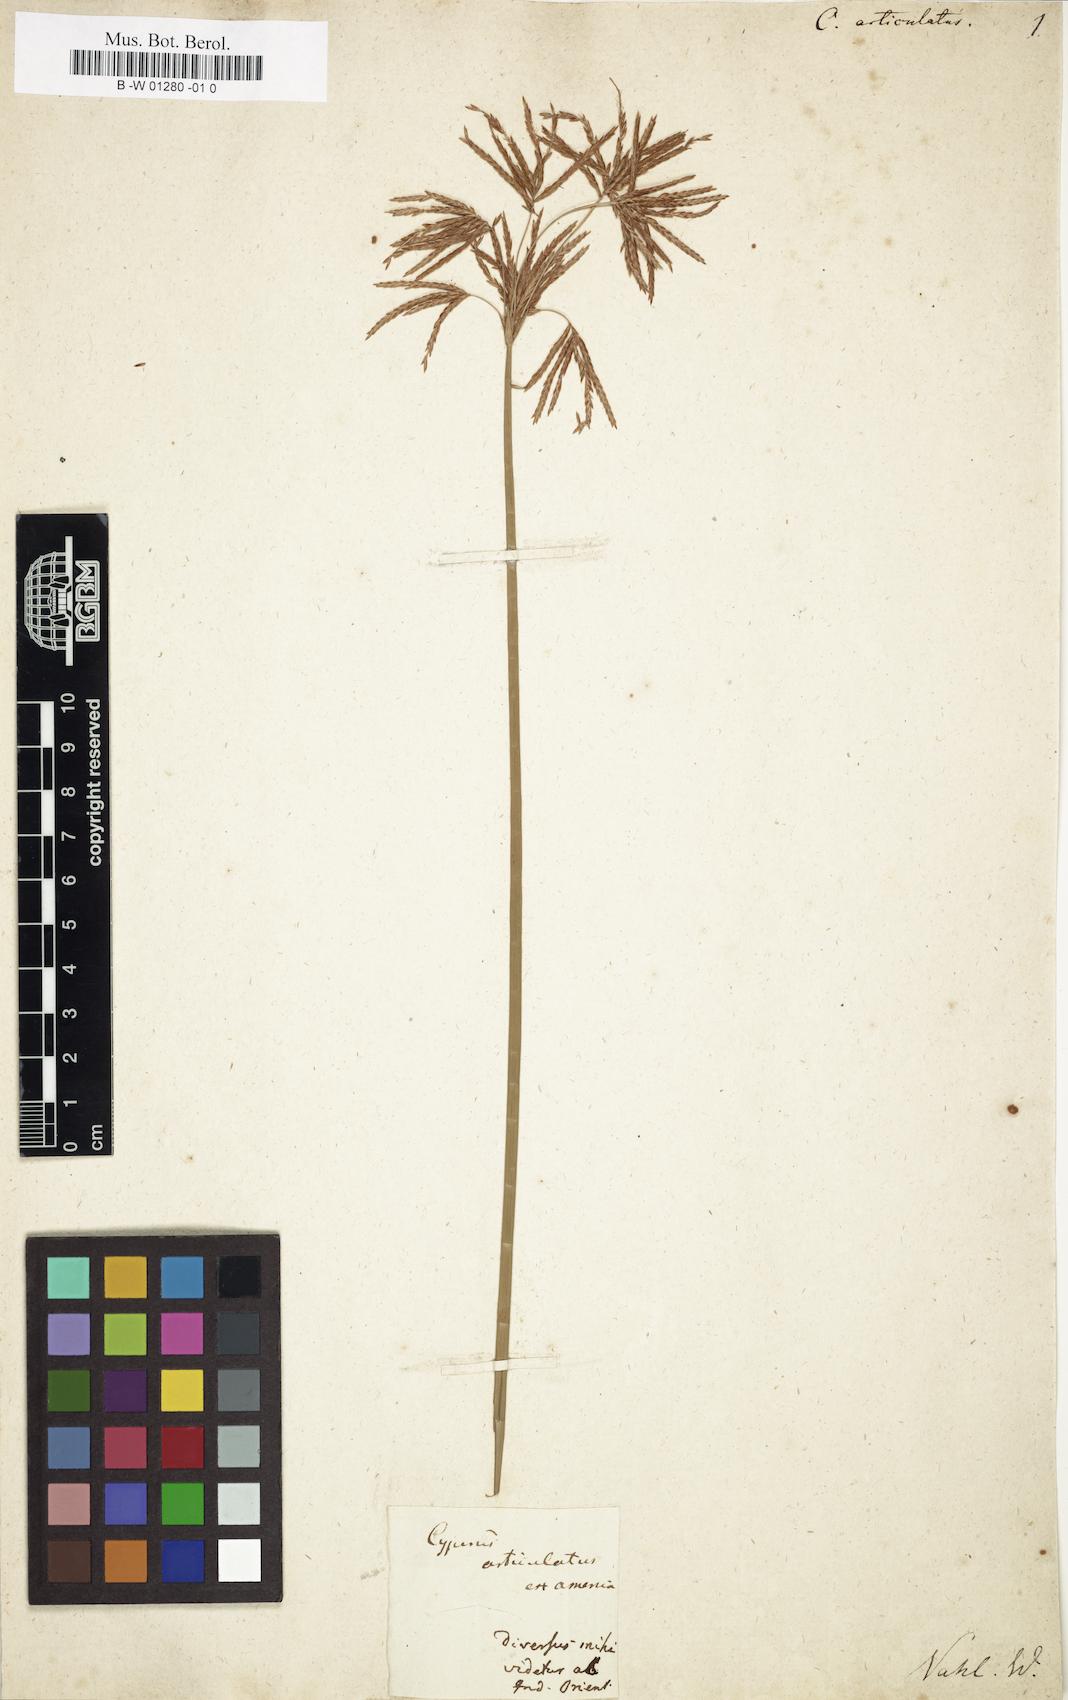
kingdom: Plantae
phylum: Tracheophyta
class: Liliopsida
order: Poales
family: Cyperaceae
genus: Cyperus
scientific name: Cyperus articulatus
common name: Jointed flatsedge
